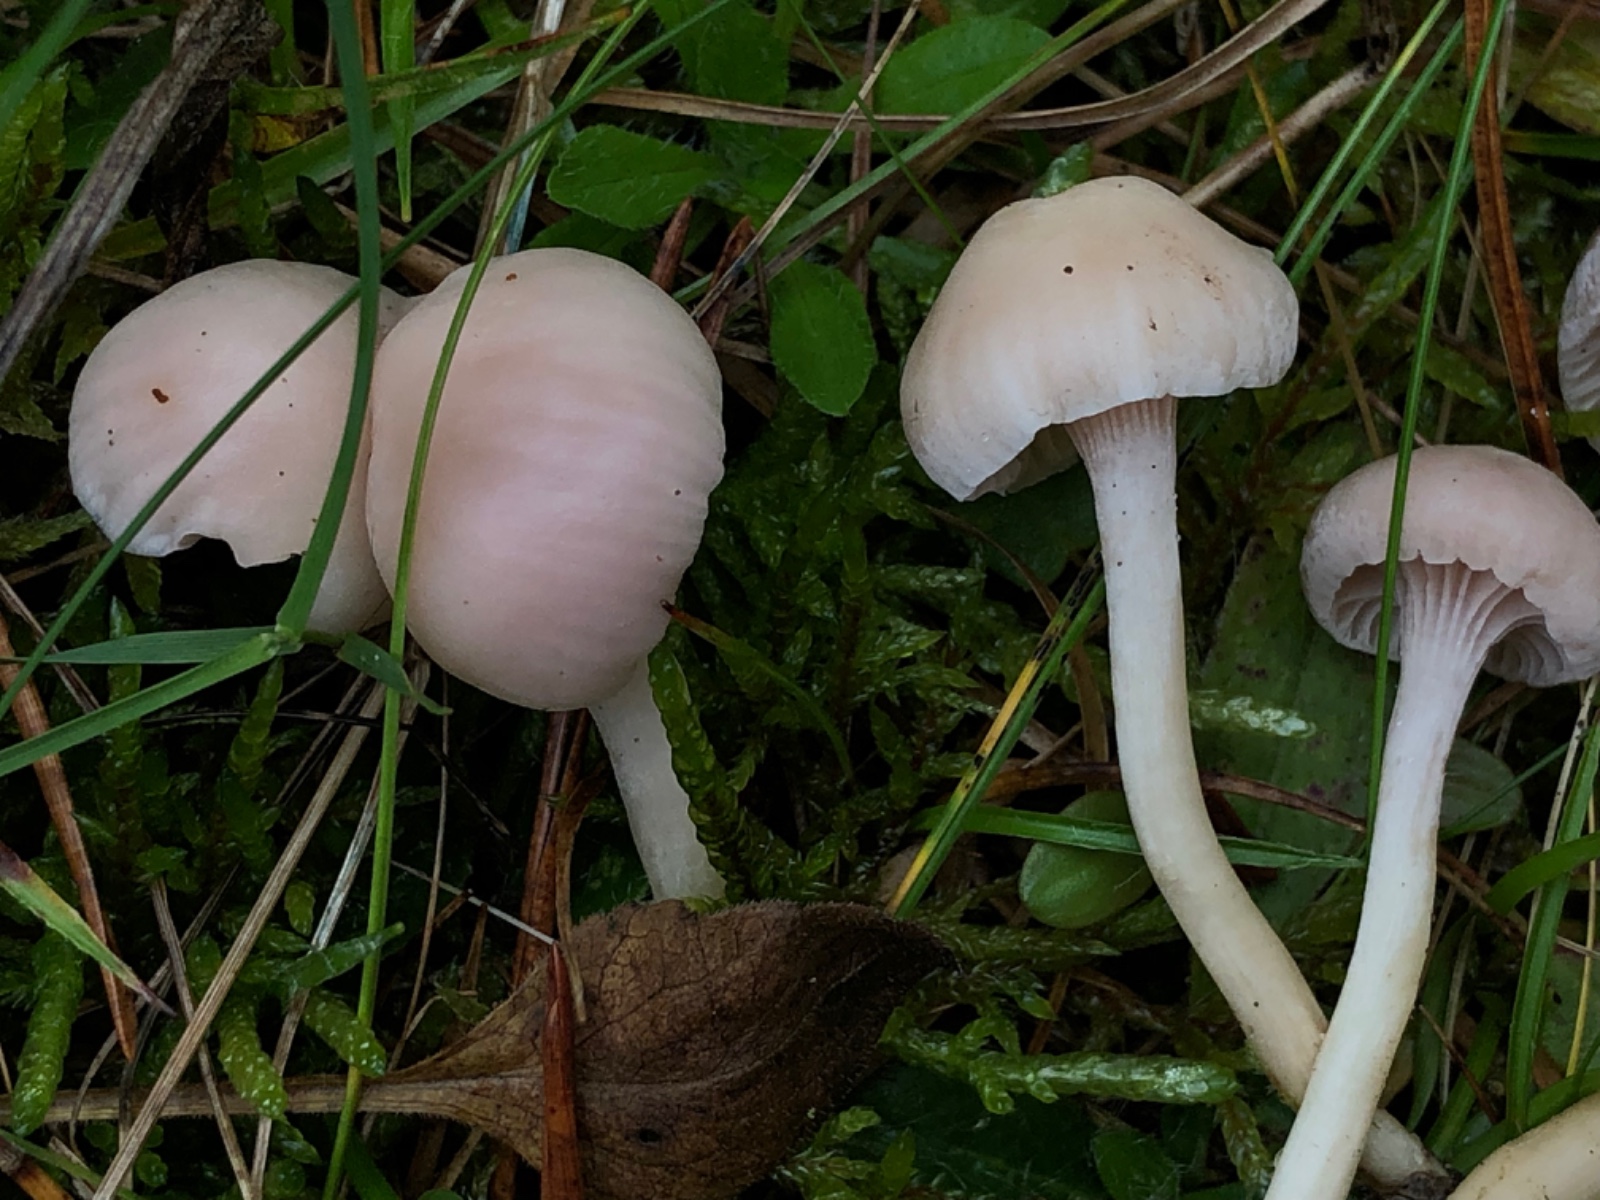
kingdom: Fungi
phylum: Ascomycota
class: Sordariomycetes
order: Hypocreales
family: Clavicipitaceae
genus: Marquandomyces
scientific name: Marquandomyces marquandii
